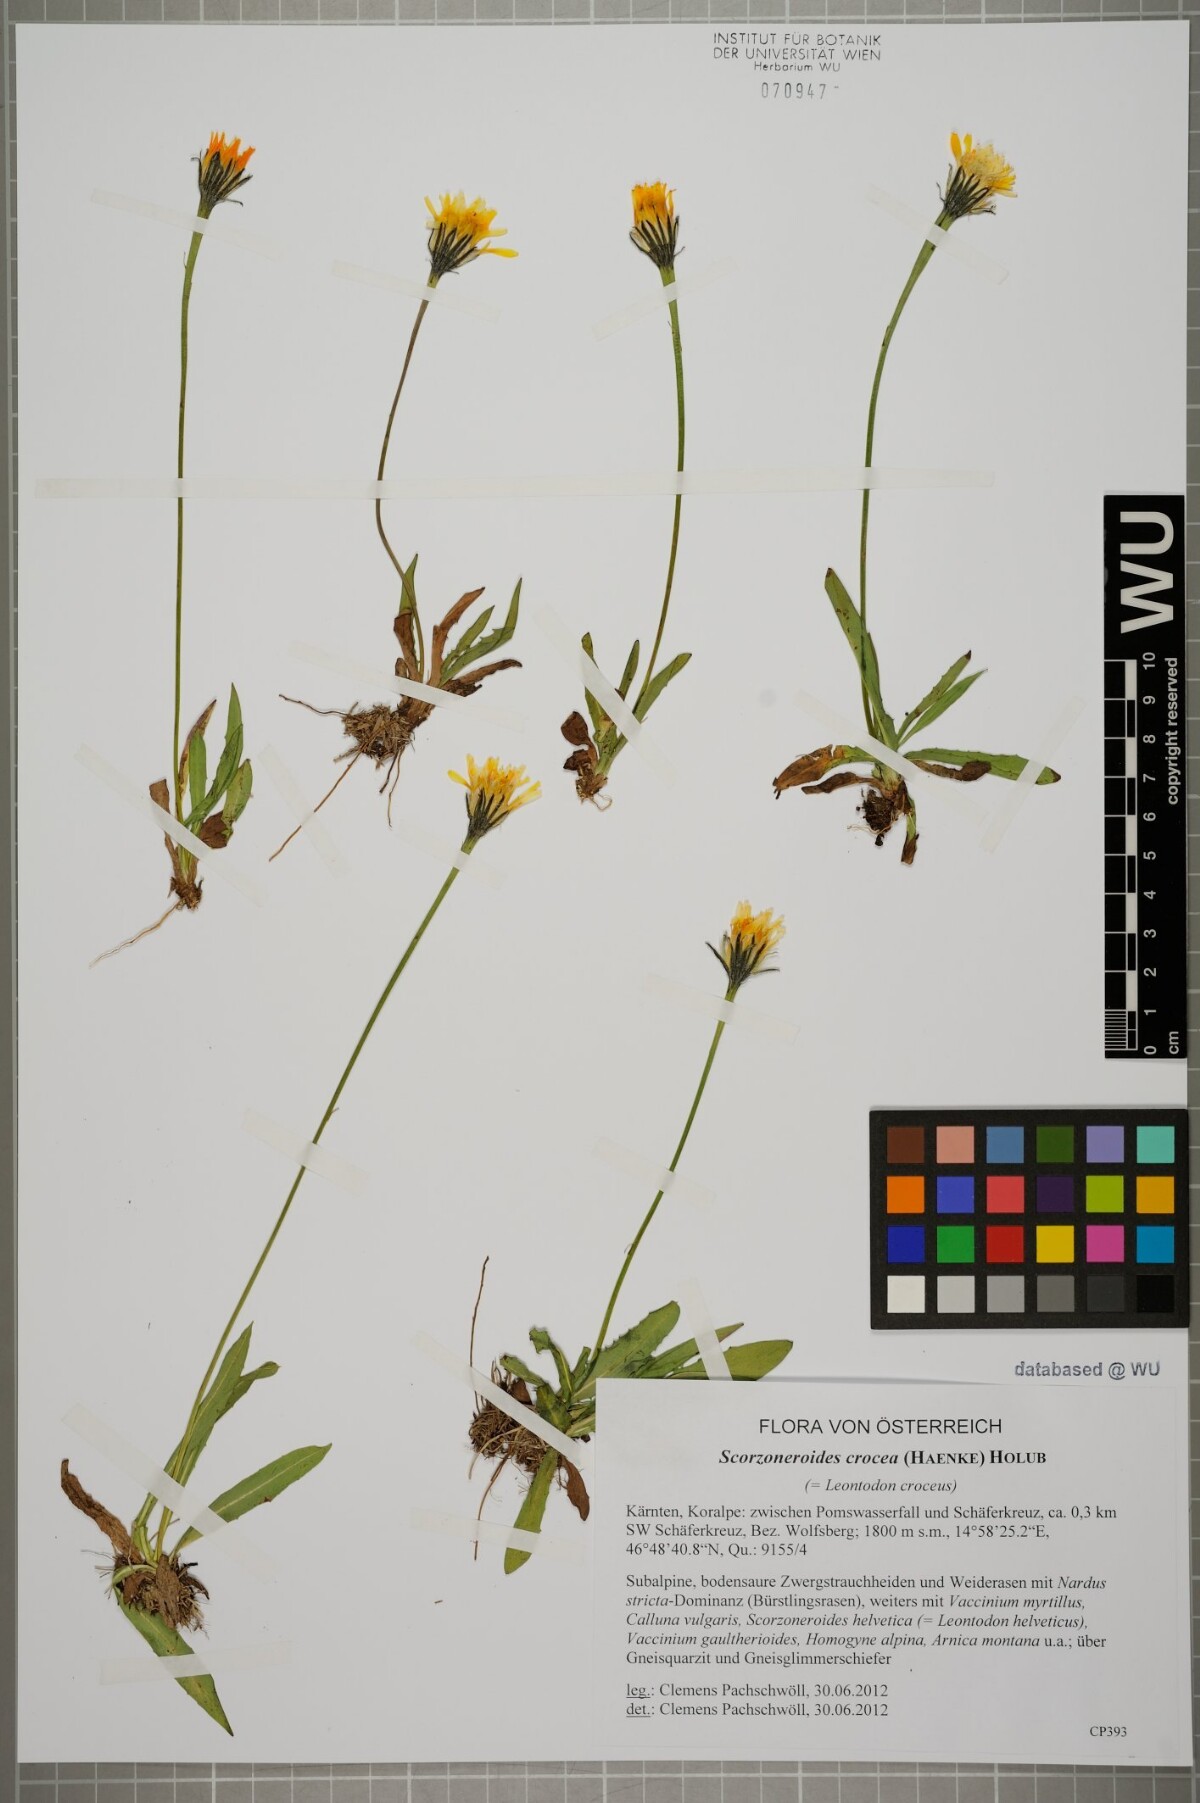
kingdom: Plantae
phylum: Tracheophyta
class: Magnoliopsida
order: Asterales
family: Asteraceae
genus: Scorzoneroides
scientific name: Scorzoneroides crocea
